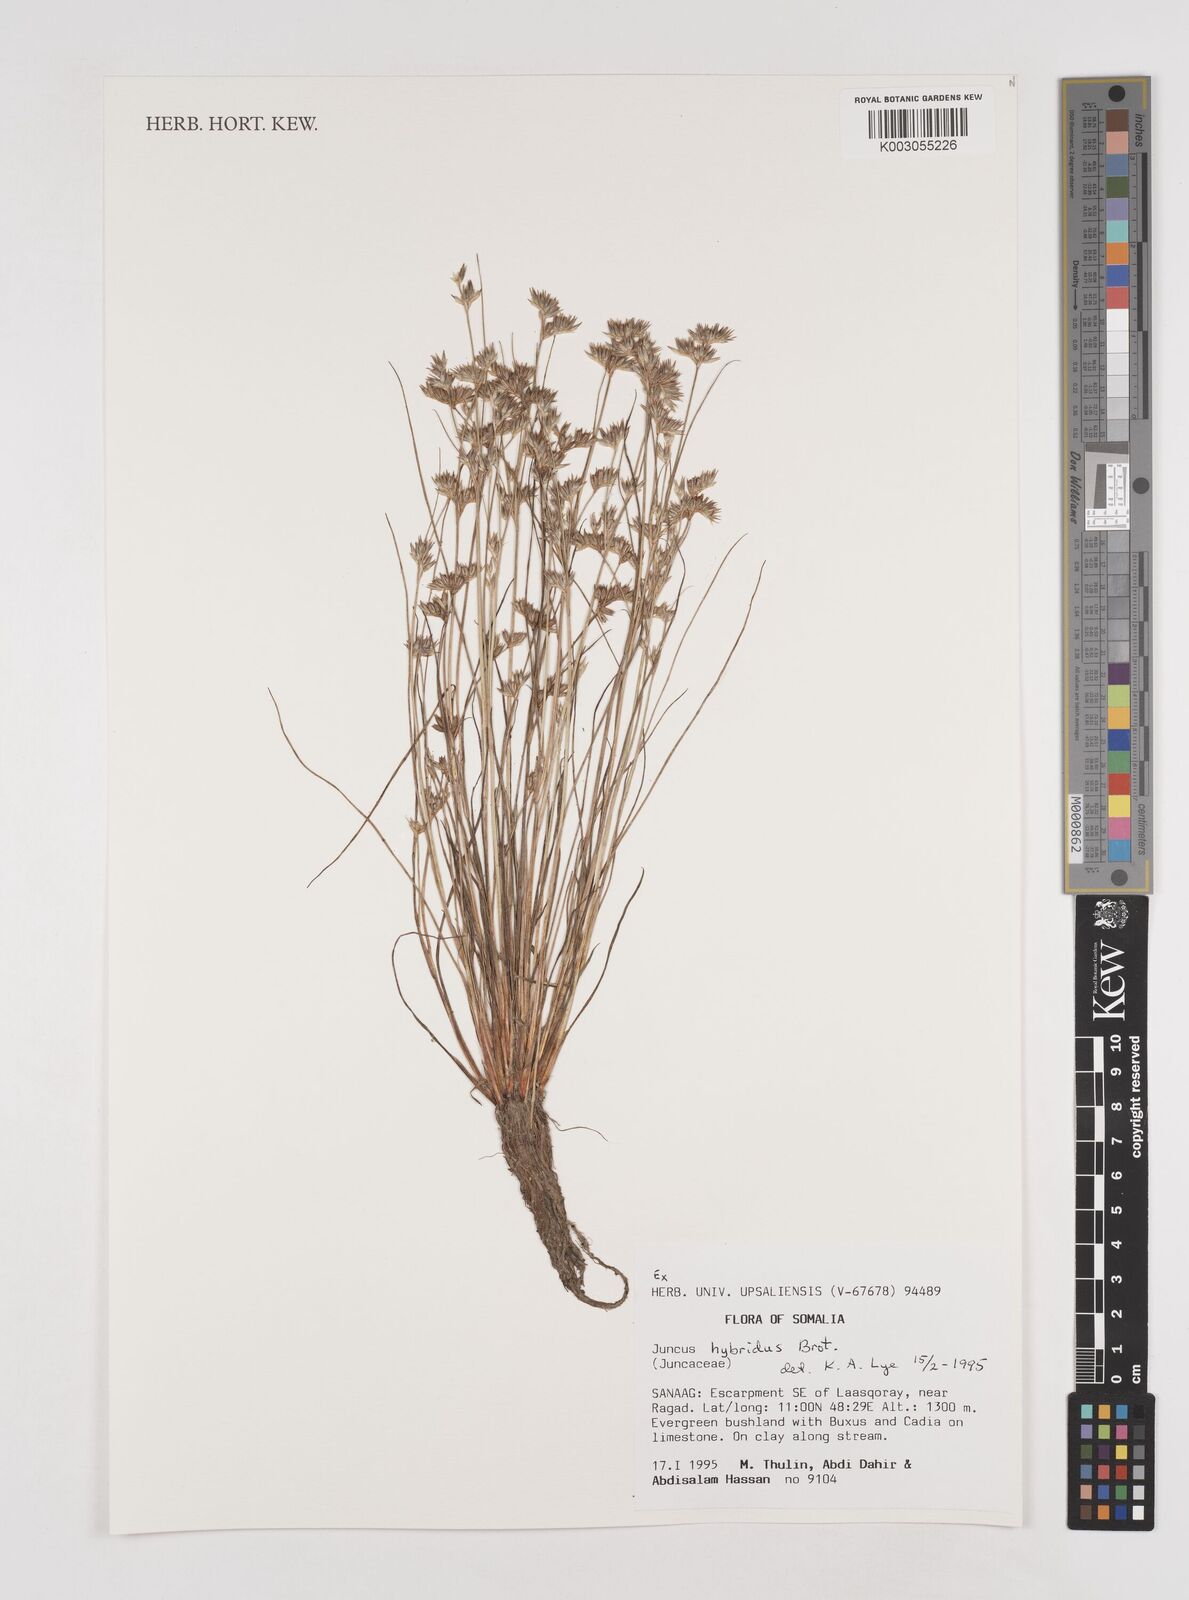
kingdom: Plantae
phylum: Tracheophyta
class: Liliopsida
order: Poales
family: Juncaceae
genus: Juncus
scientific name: Juncus hybridus
